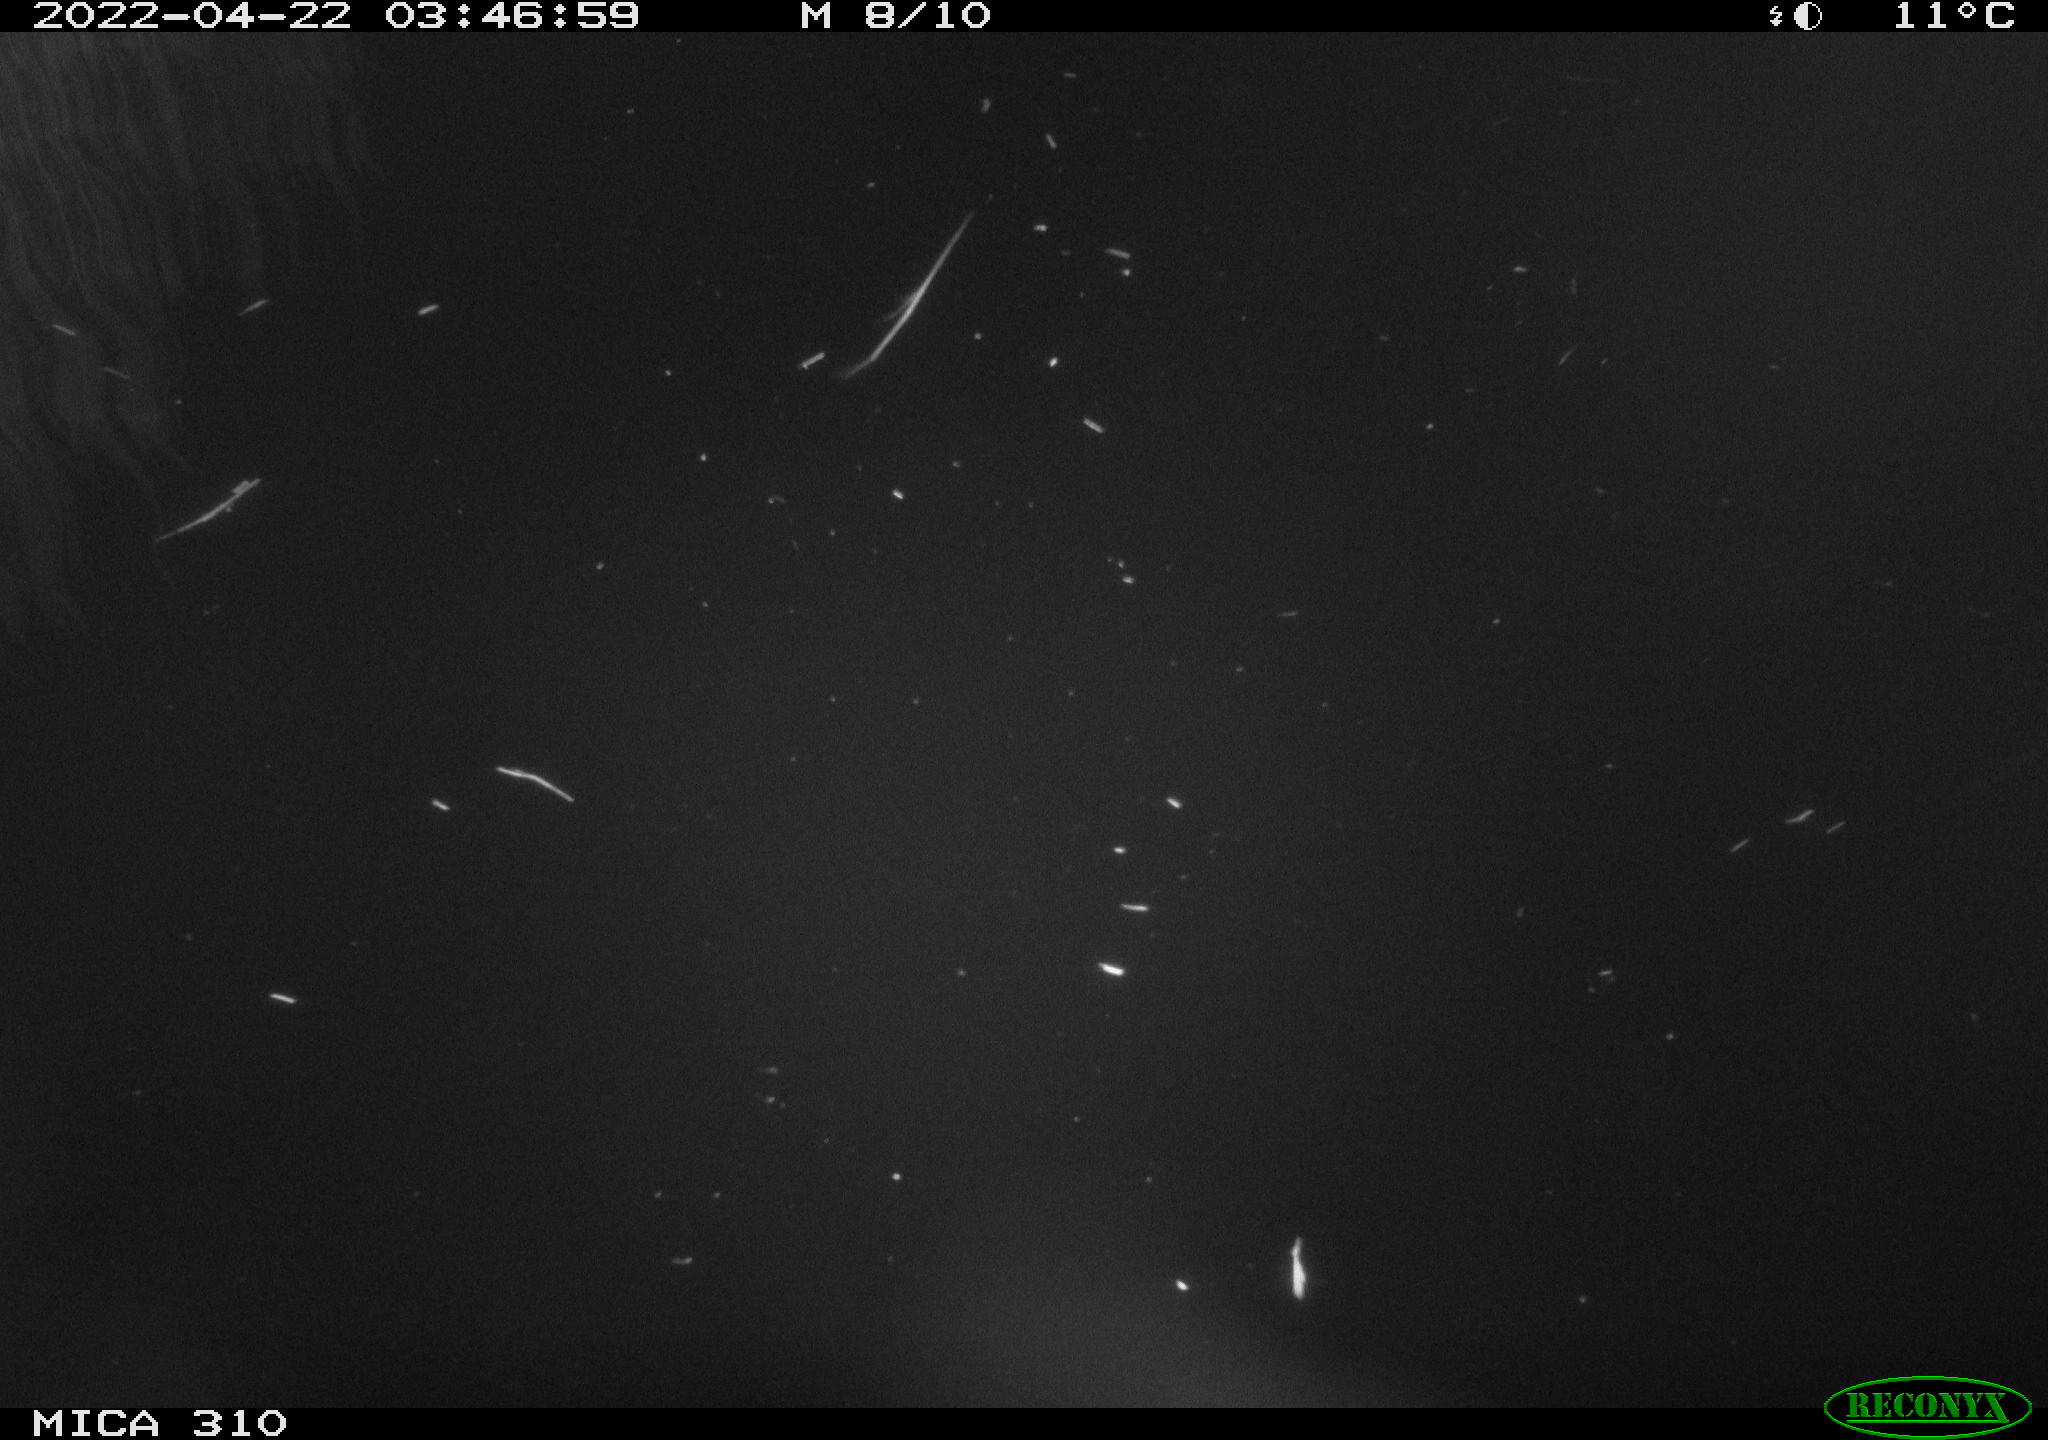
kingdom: Animalia
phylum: Chordata
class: Aves
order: Anseriformes
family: Anatidae
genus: Anas
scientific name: Anas platyrhynchos
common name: Mallard
